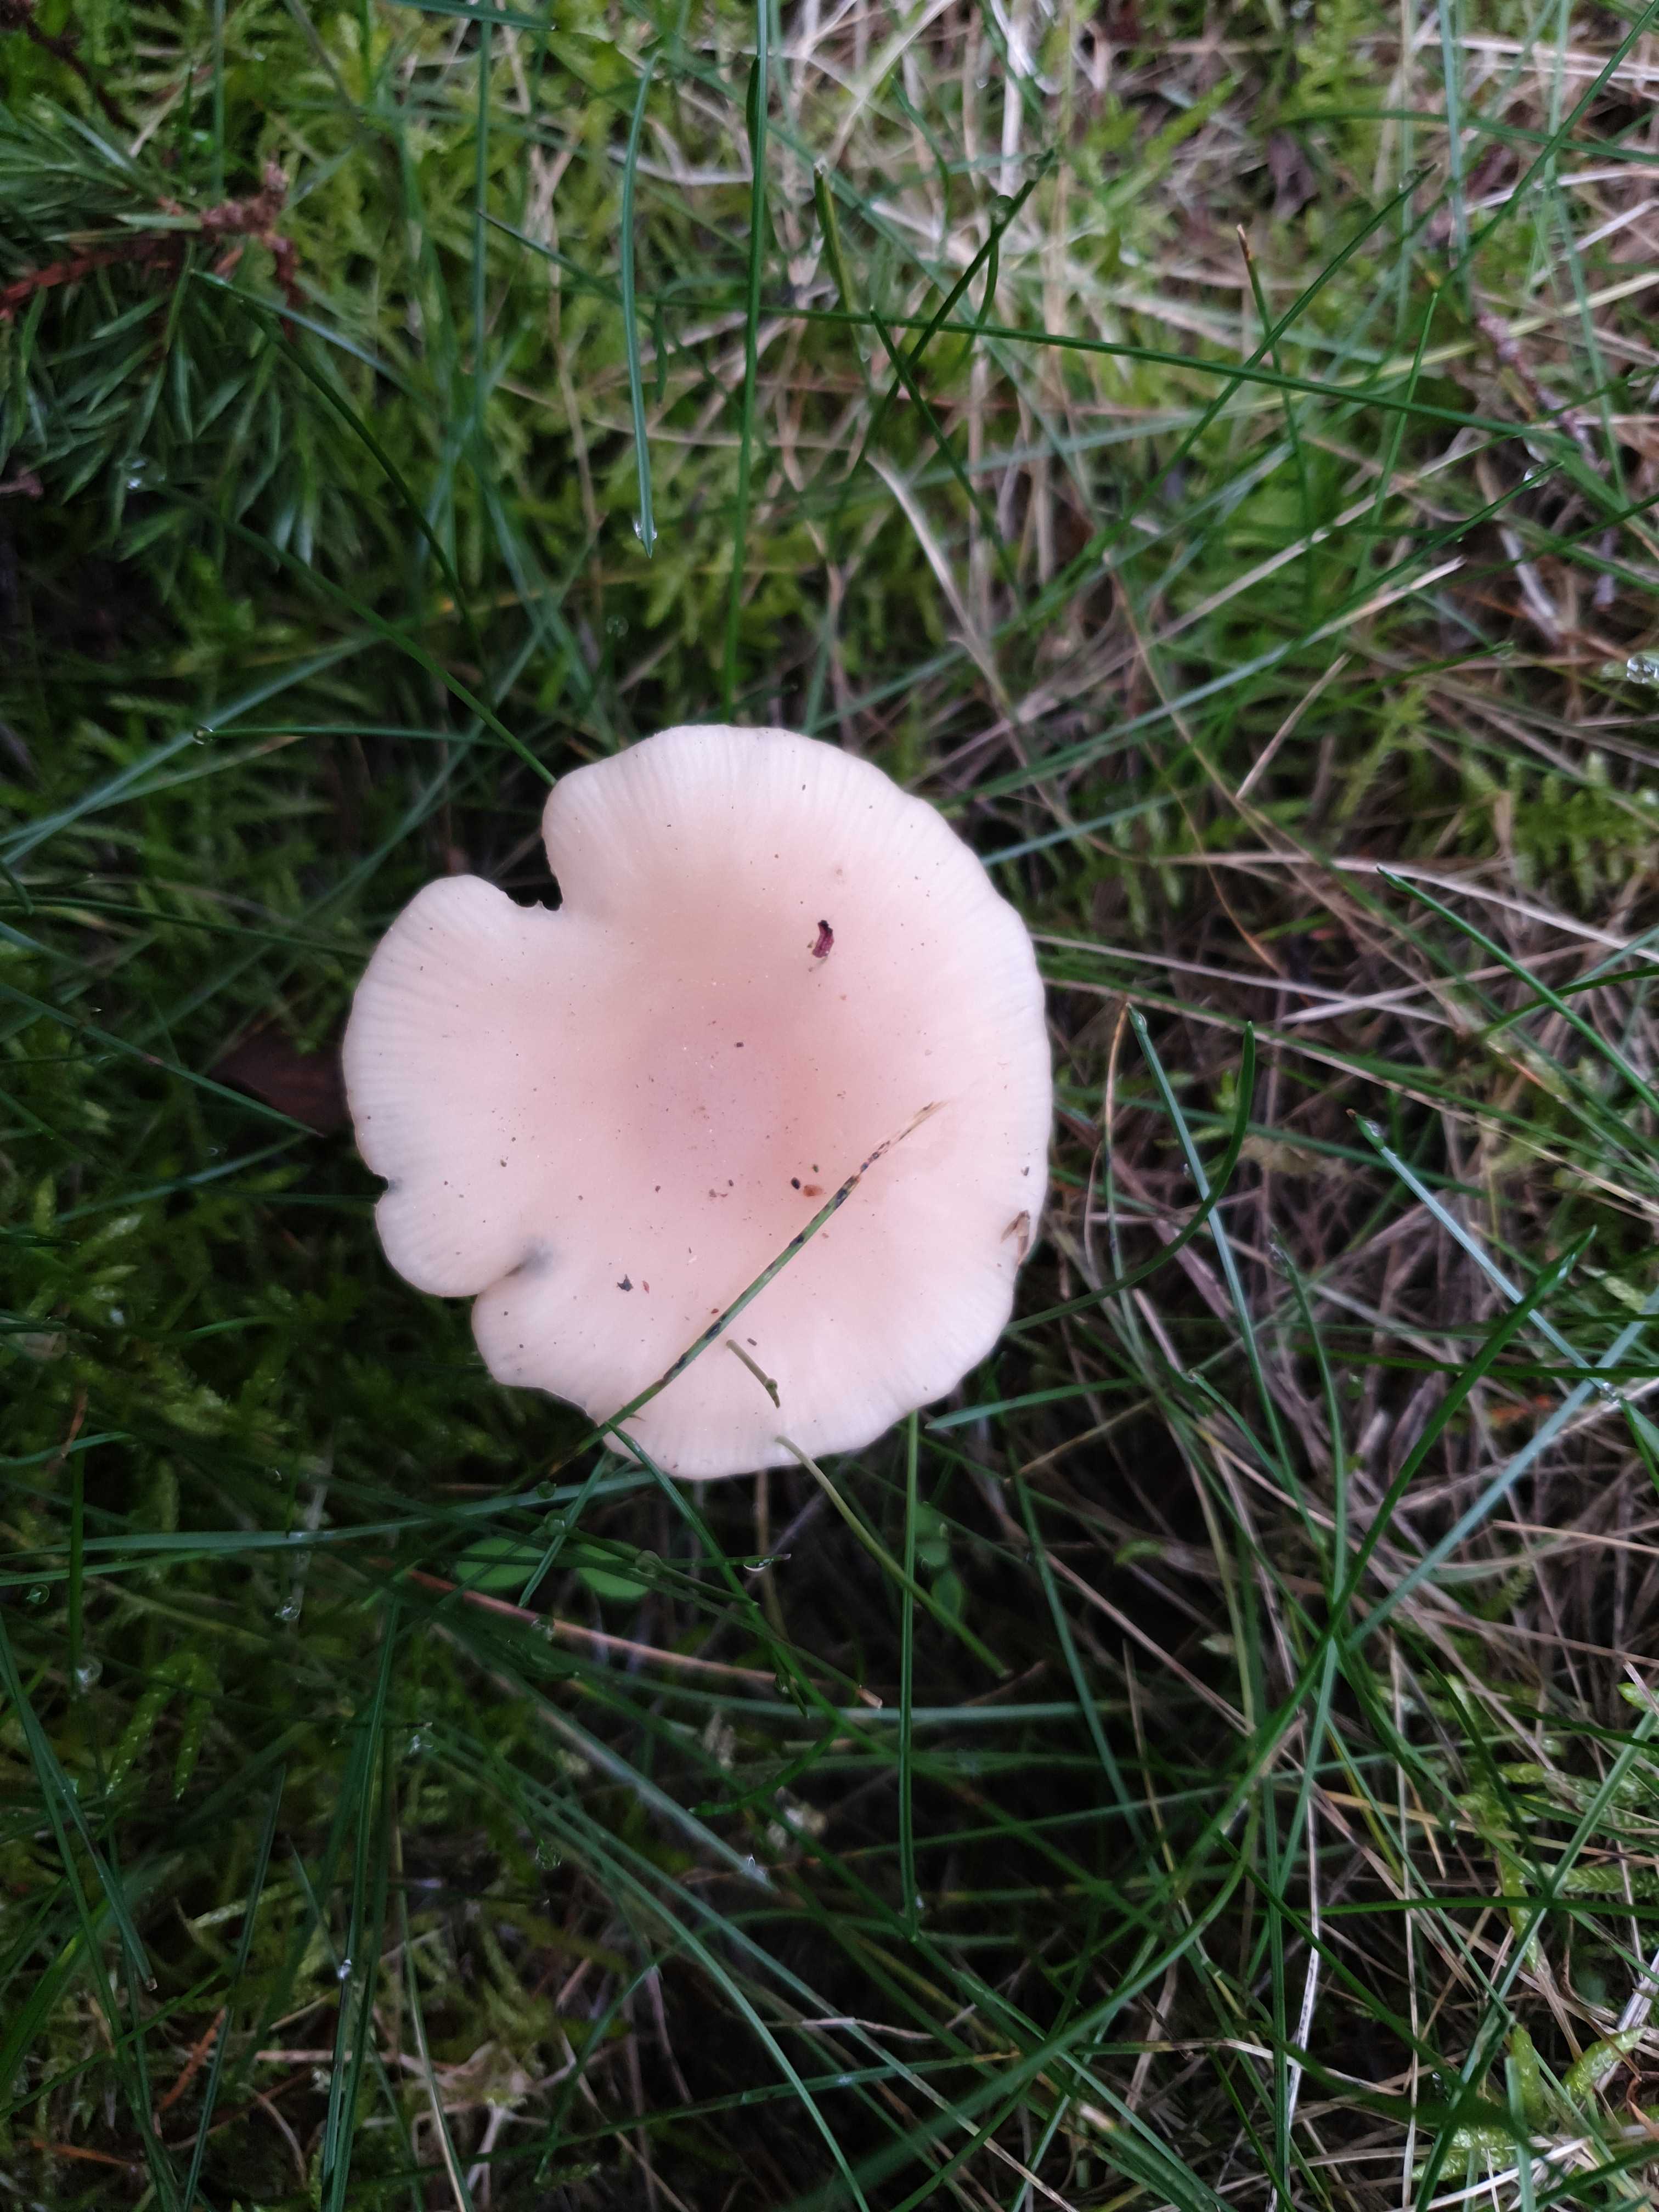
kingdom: Fungi
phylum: Basidiomycota
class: Agaricomycetes
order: Agaricales
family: Tricholomataceae
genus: Clitocybe
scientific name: Clitocybe fragrans
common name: vellugtende tragthat
